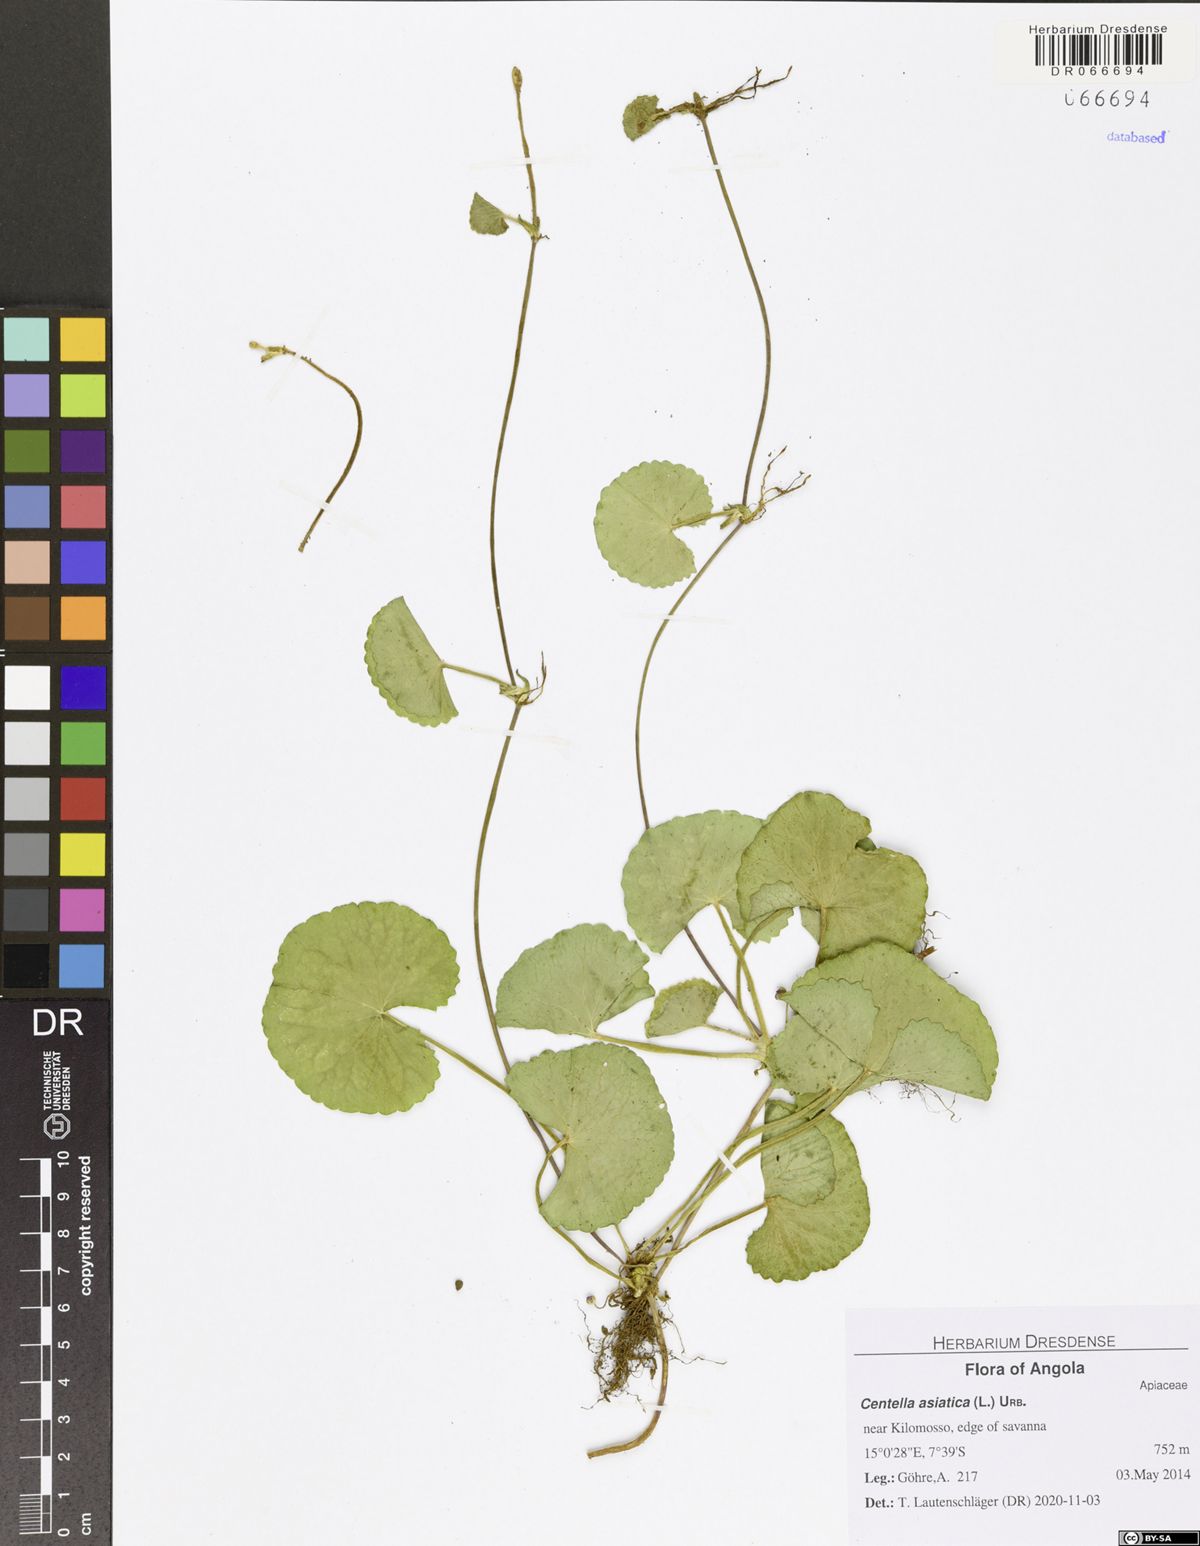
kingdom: Plantae
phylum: Tracheophyta
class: Magnoliopsida
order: Apiales
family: Apiaceae
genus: Centella
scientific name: Centella asiatica
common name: Spadeleaf
